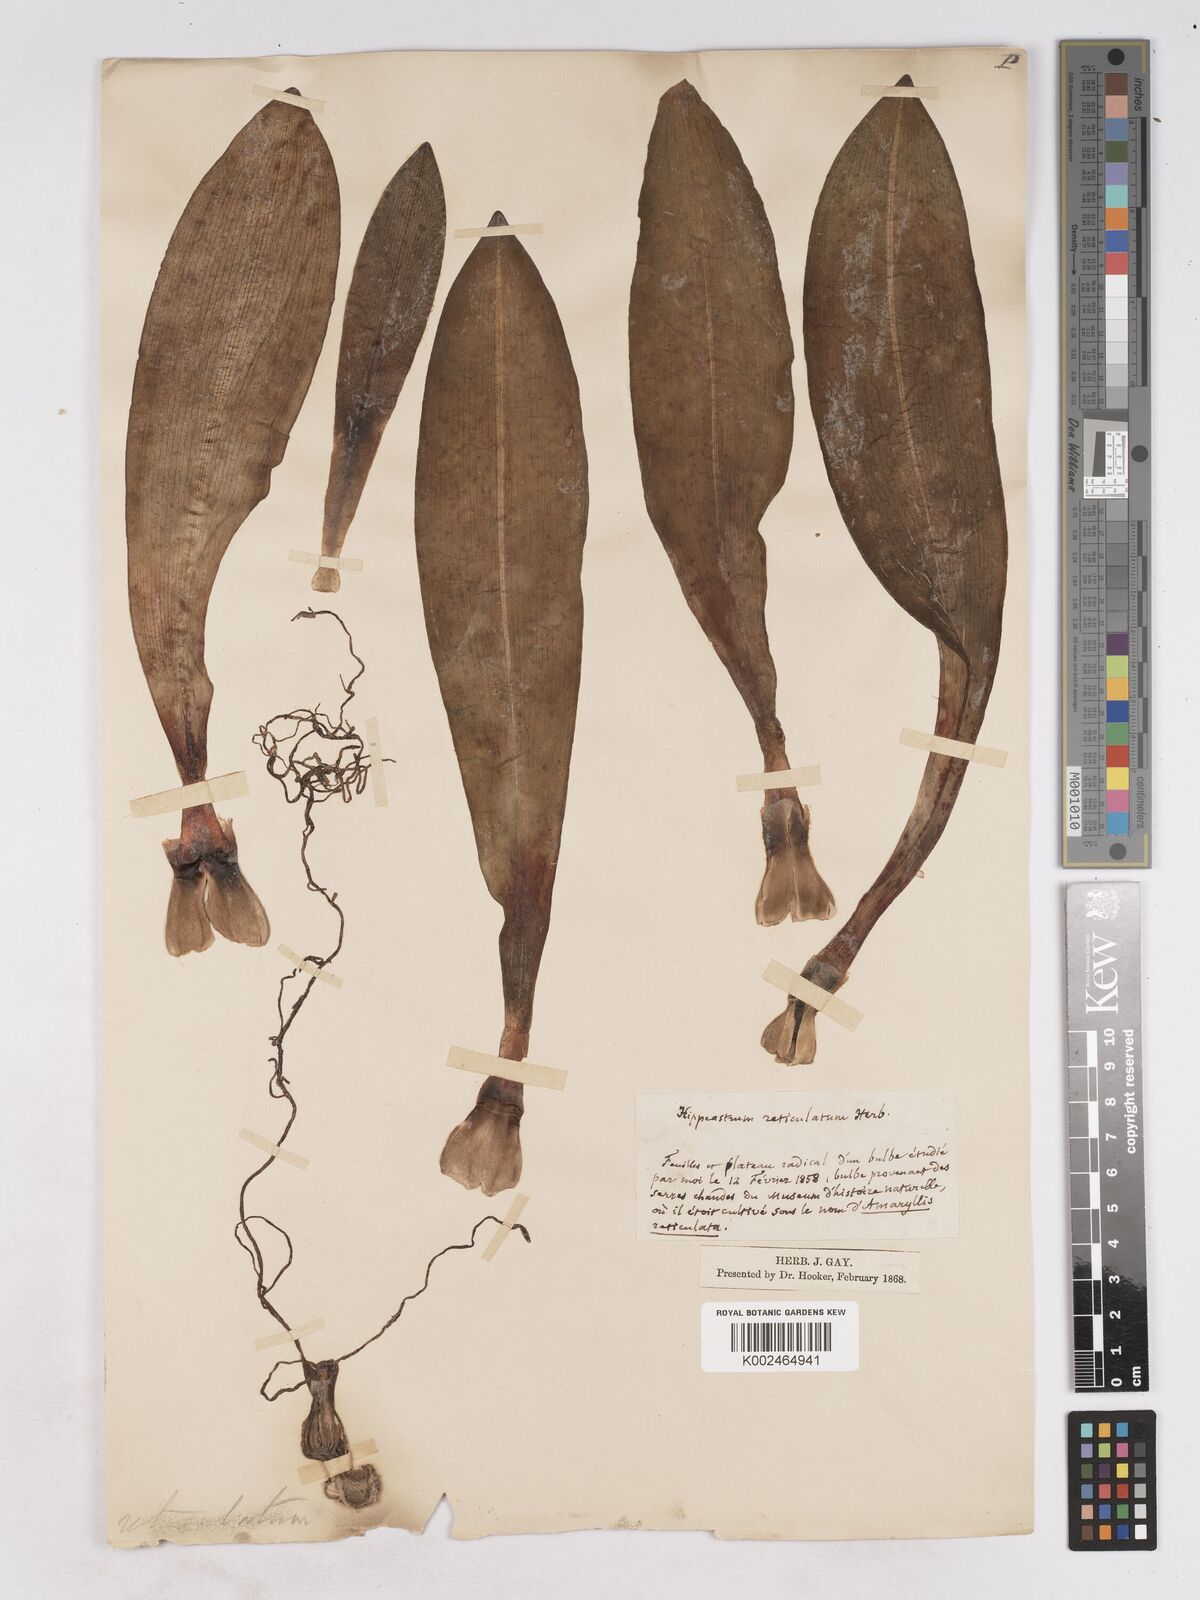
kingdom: Plantae
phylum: Tracheophyta
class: Liliopsida
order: Asparagales
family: Amaryllidaceae
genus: Hippeastrum
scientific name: Hippeastrum reticulatum
